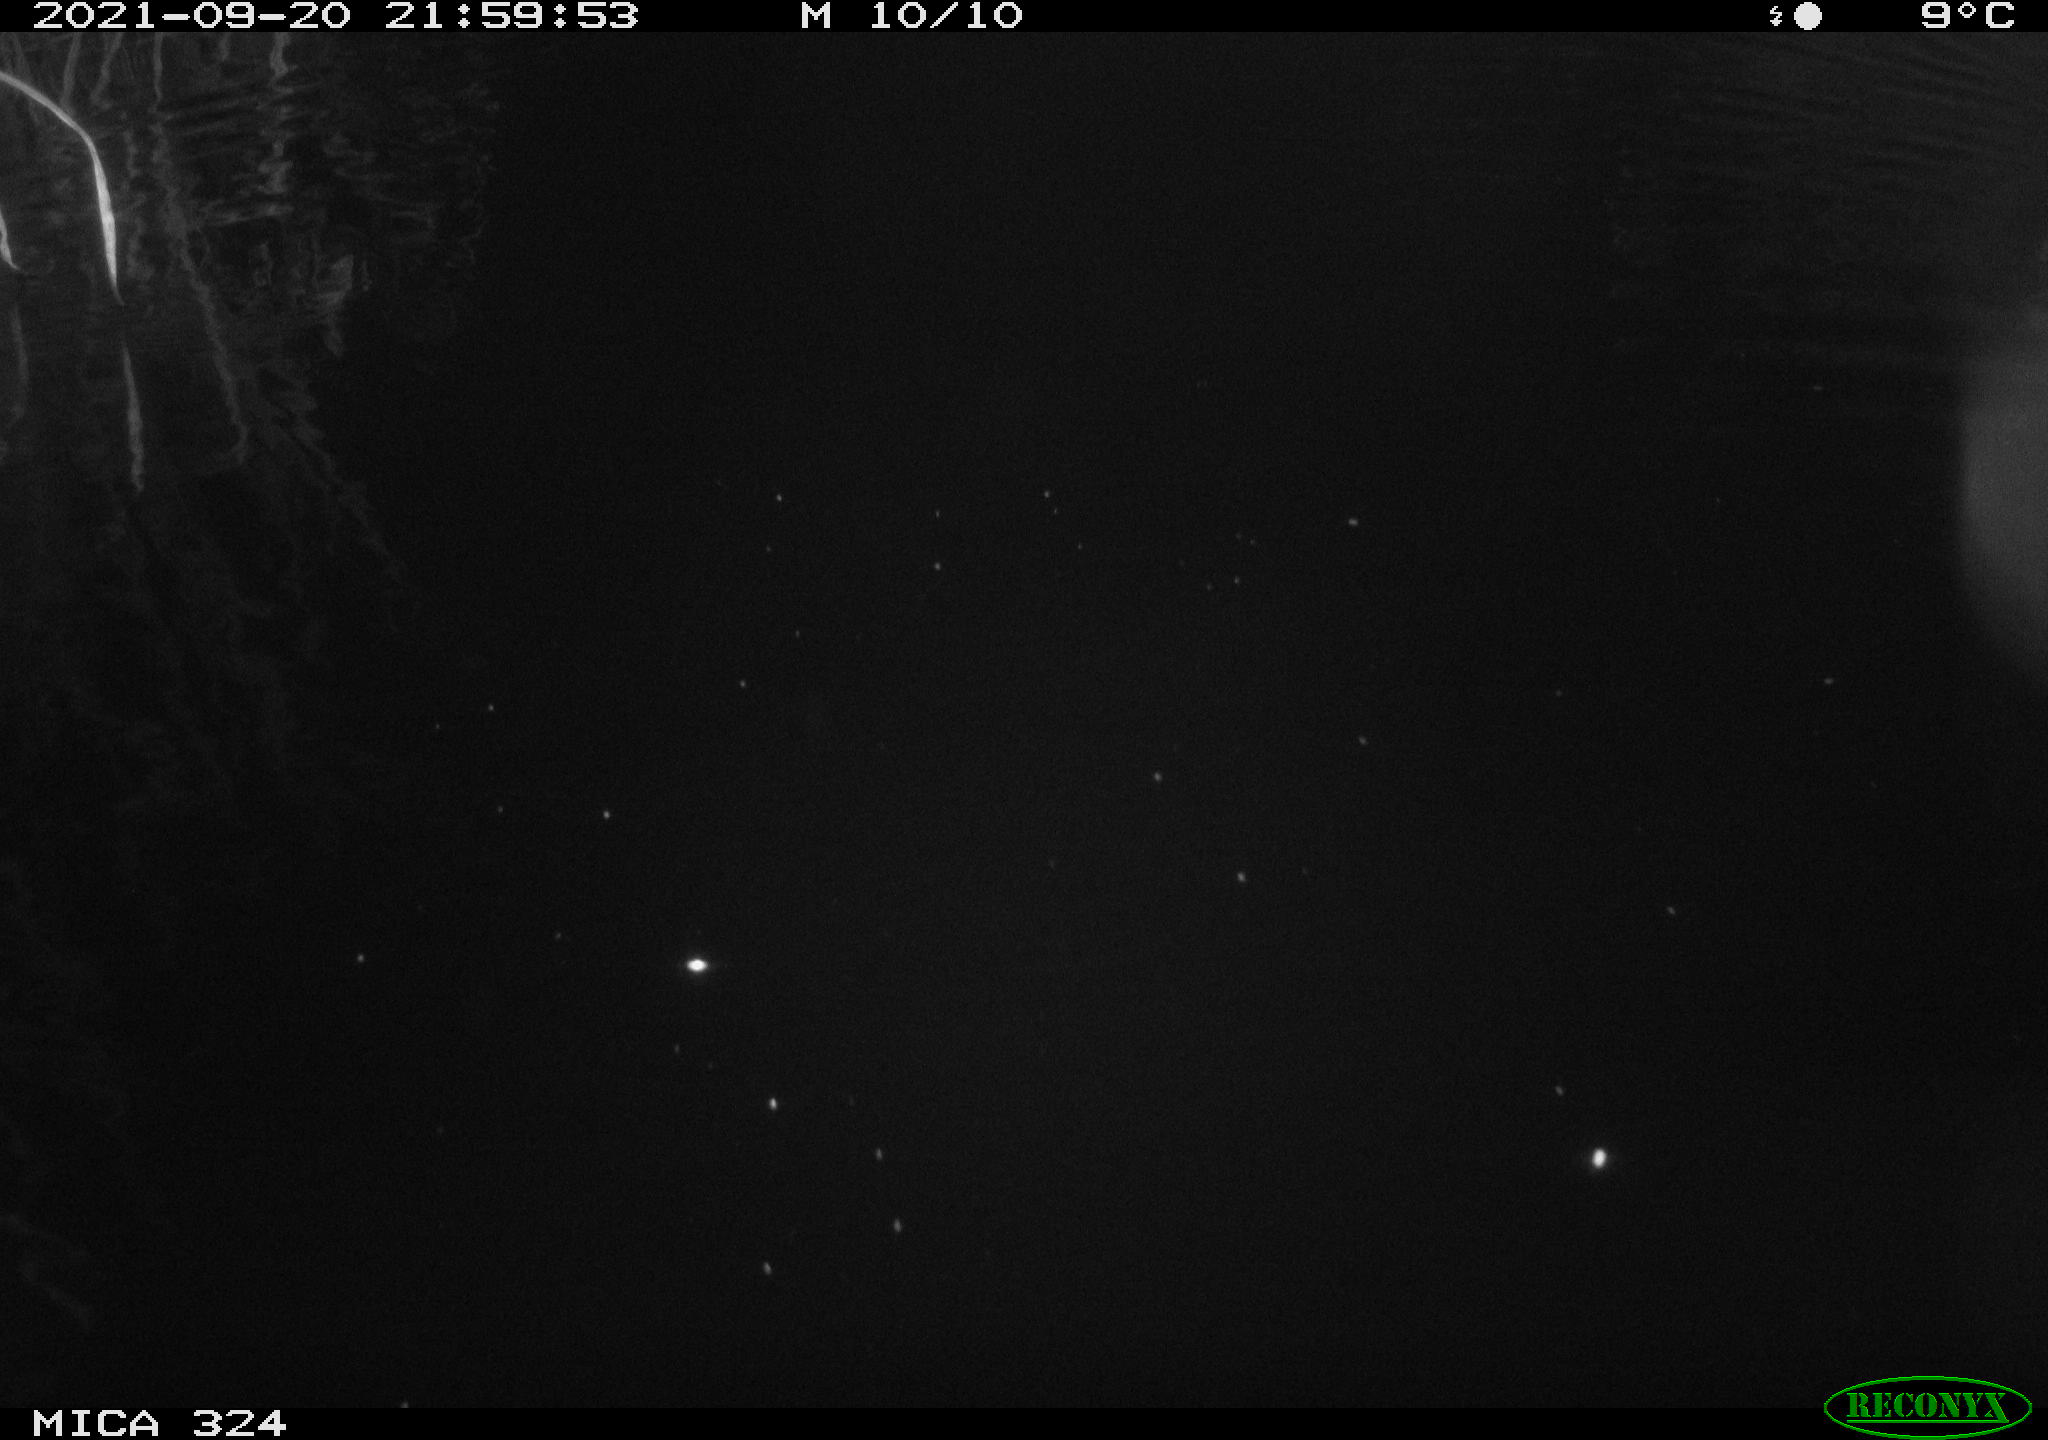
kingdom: Animalia
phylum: Chordata
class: Mammalia
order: Rodentia
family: Cricetidae
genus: Ondatra
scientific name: Ondatra zibethicus
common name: Muskrat
